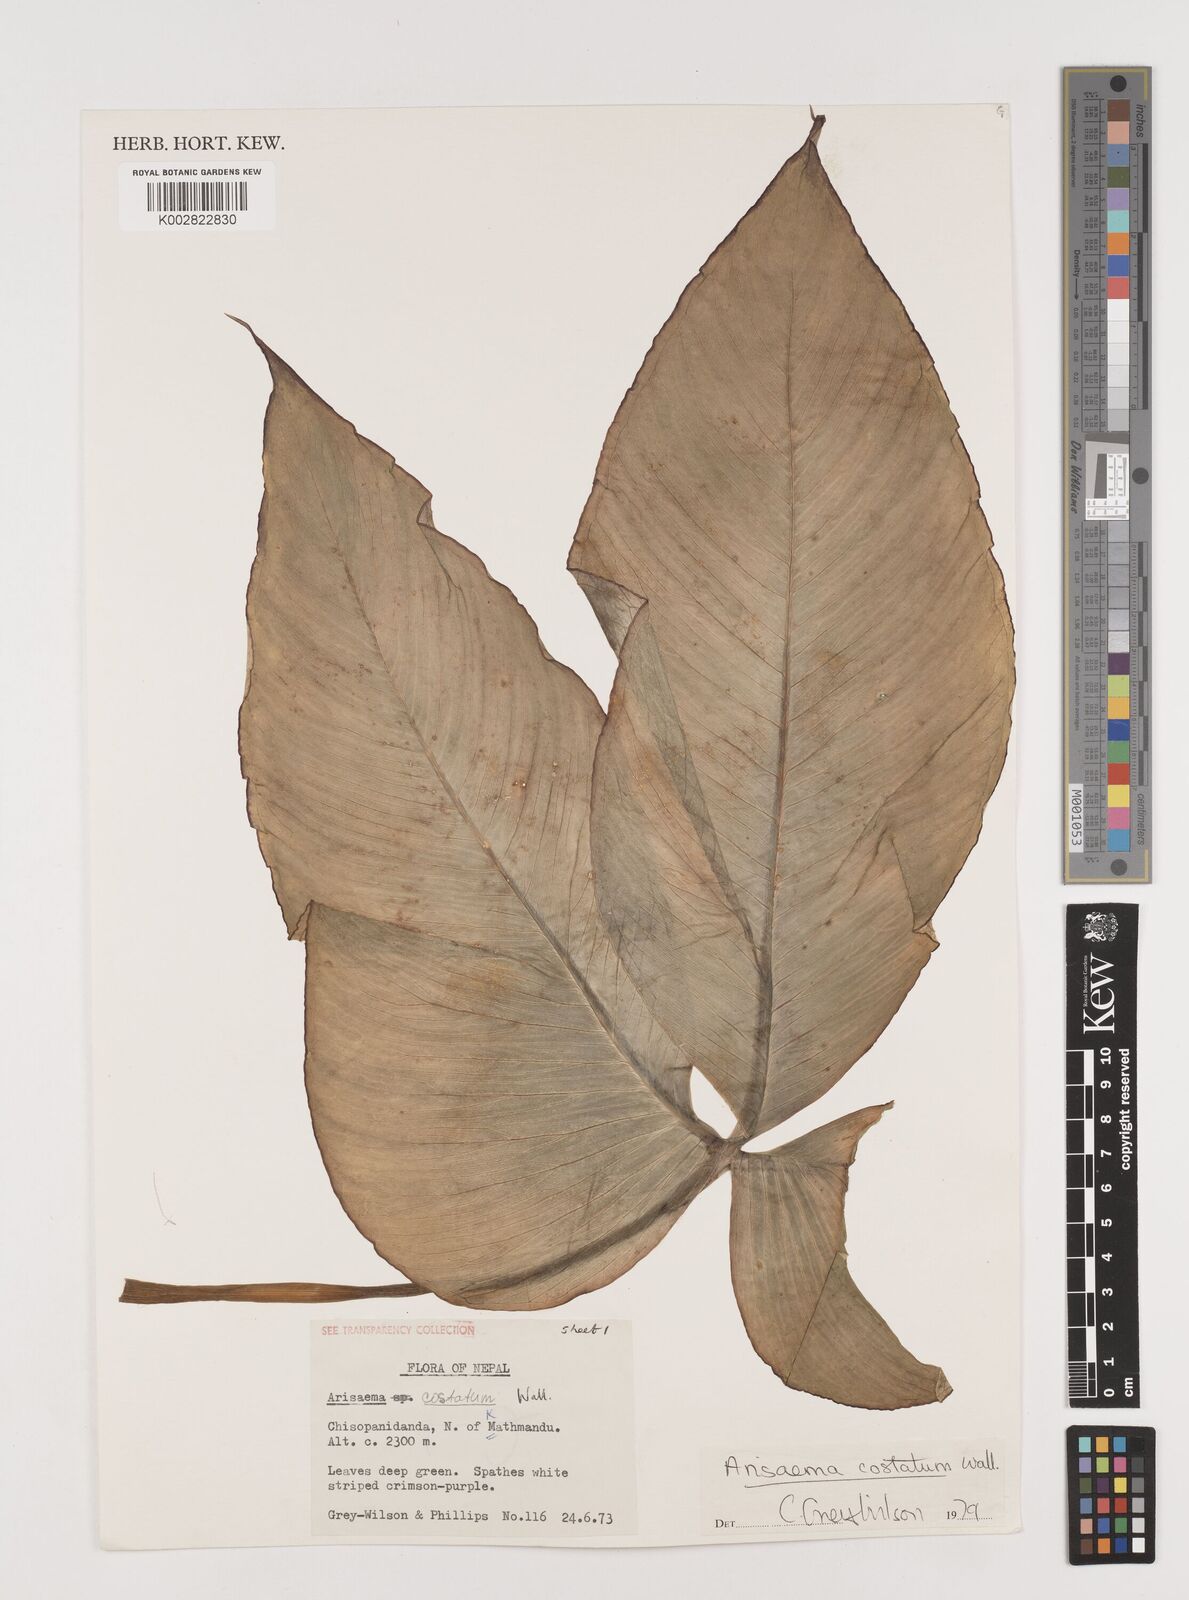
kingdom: Plantae
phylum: Tracheophyta
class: Liliopsida
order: Alismatales
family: Araceae
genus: Arisaema
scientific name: Arisaema costatum
